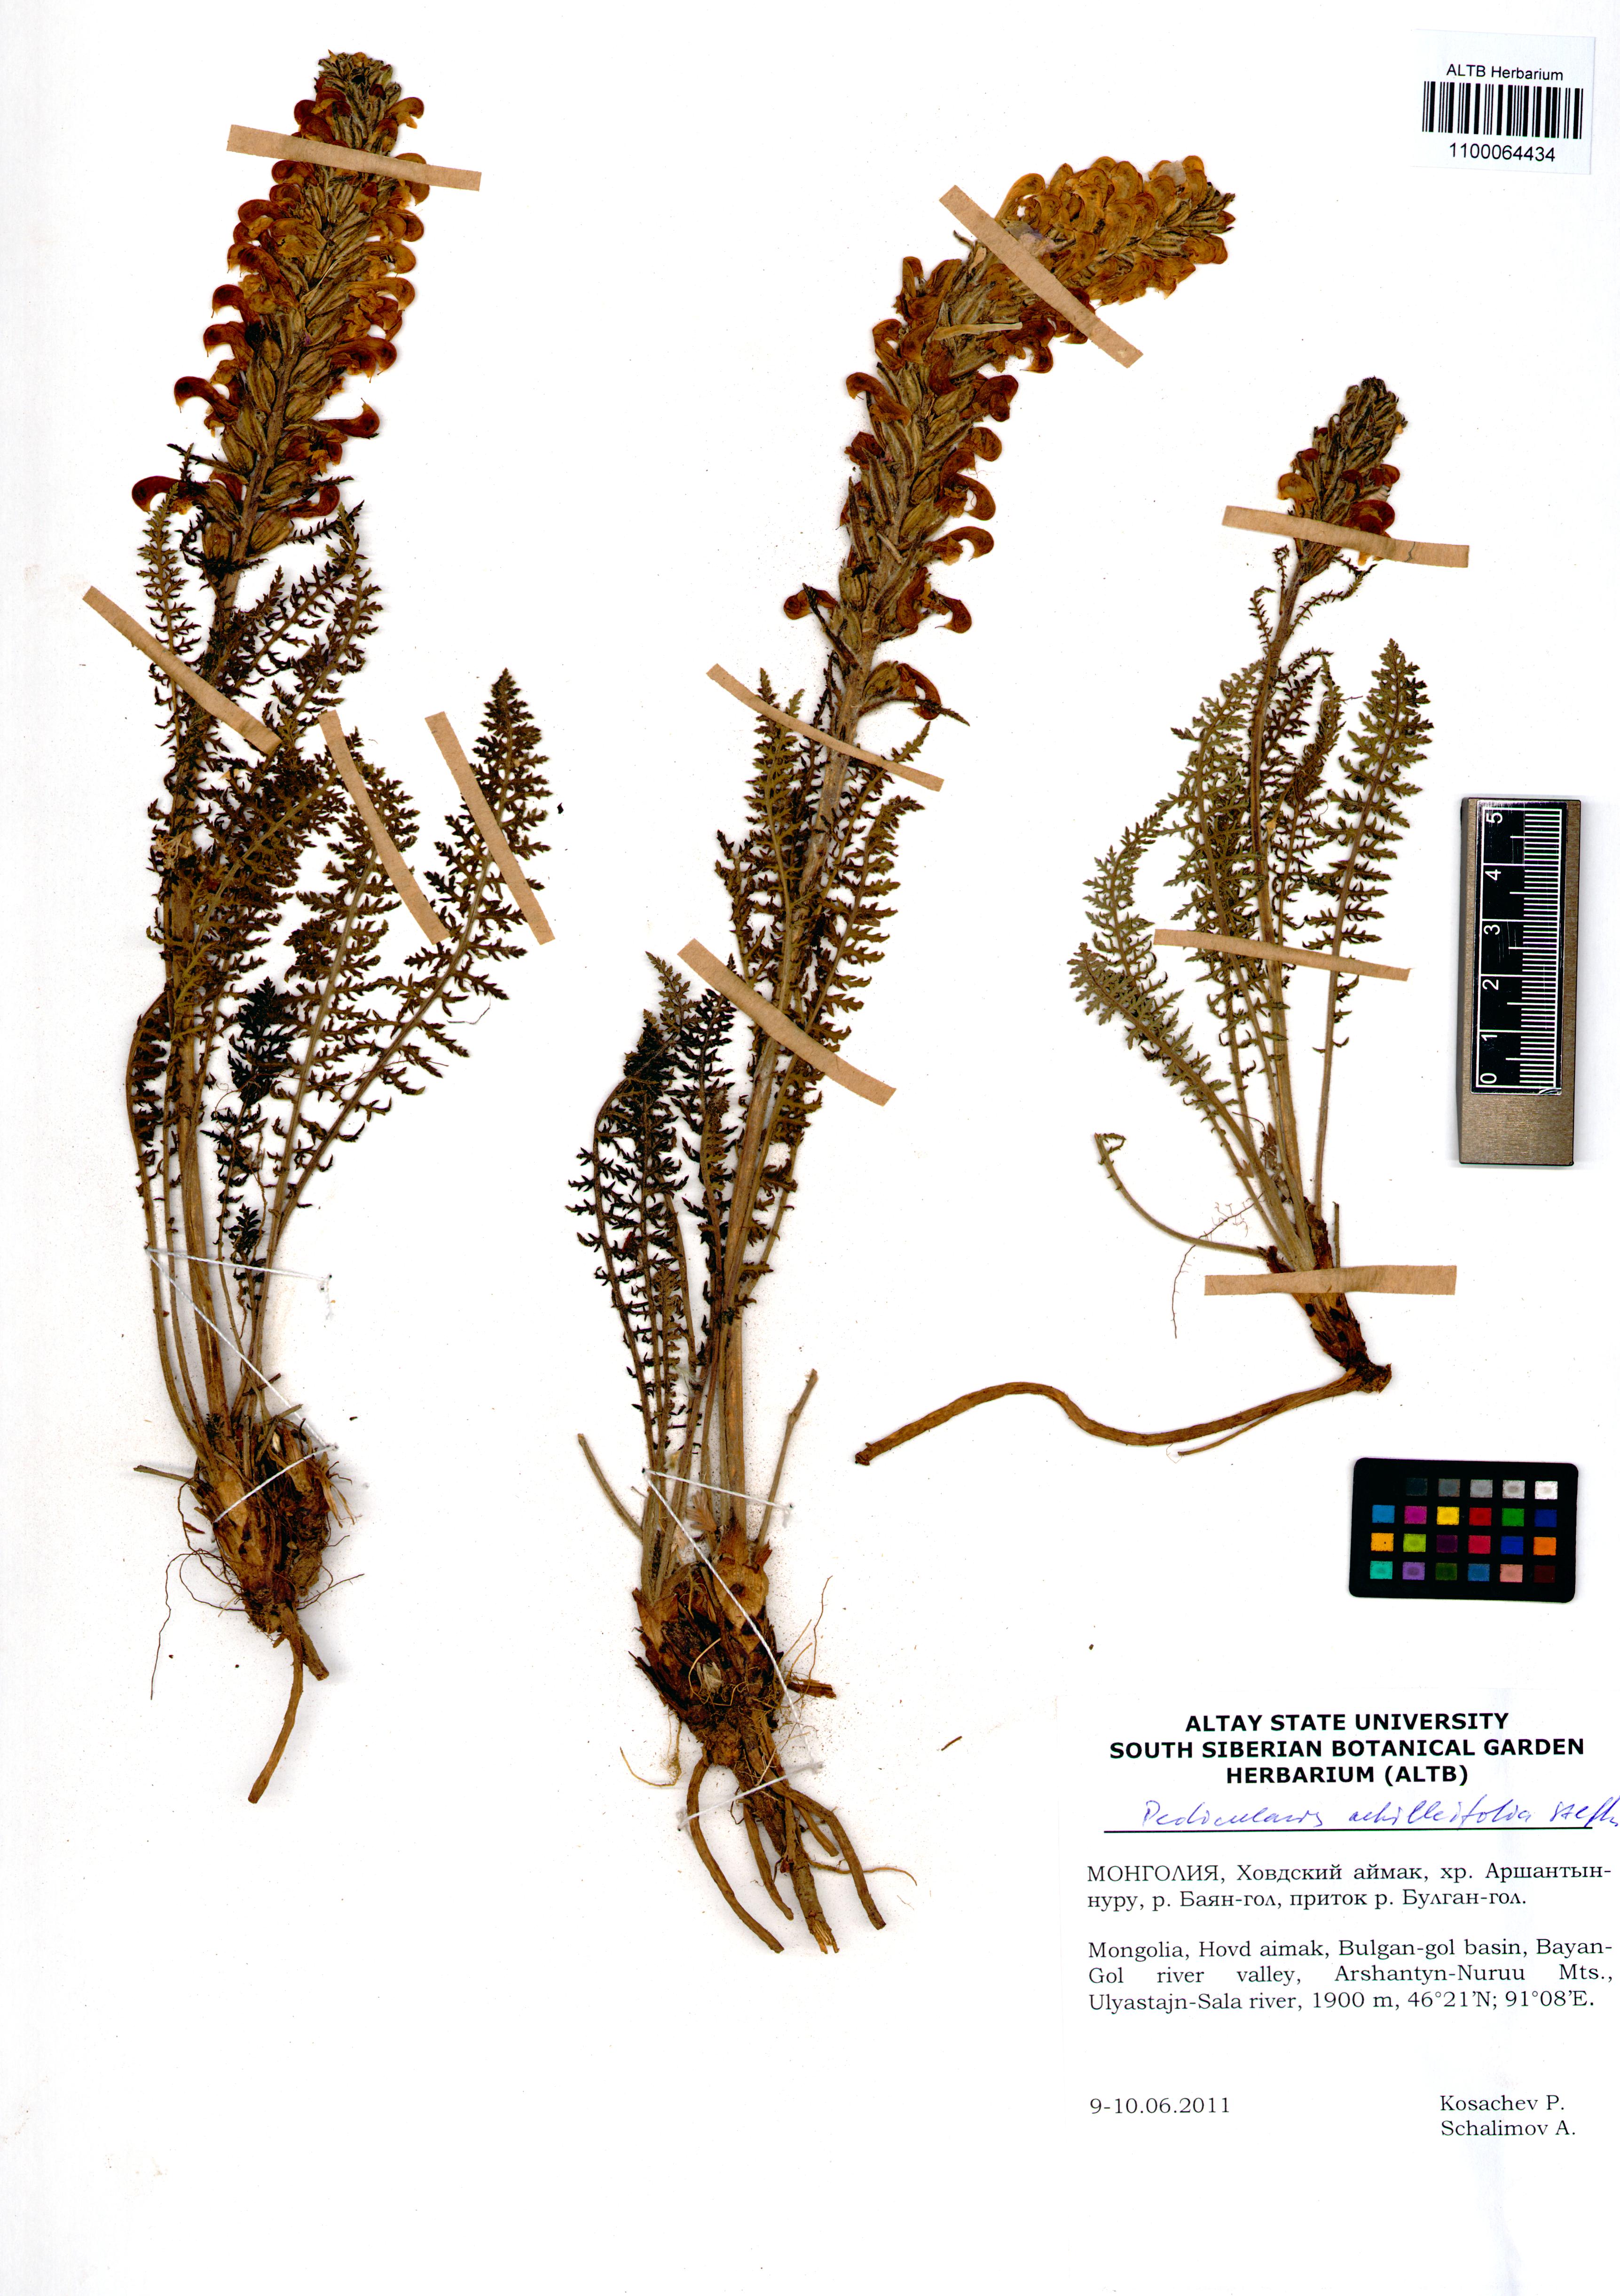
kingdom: Plantae
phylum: Tracheophyta
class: Magnoliopsida
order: Lamiales
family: Orobanchaceae
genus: Pedicularis
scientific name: Pedicularis achilleifolia
